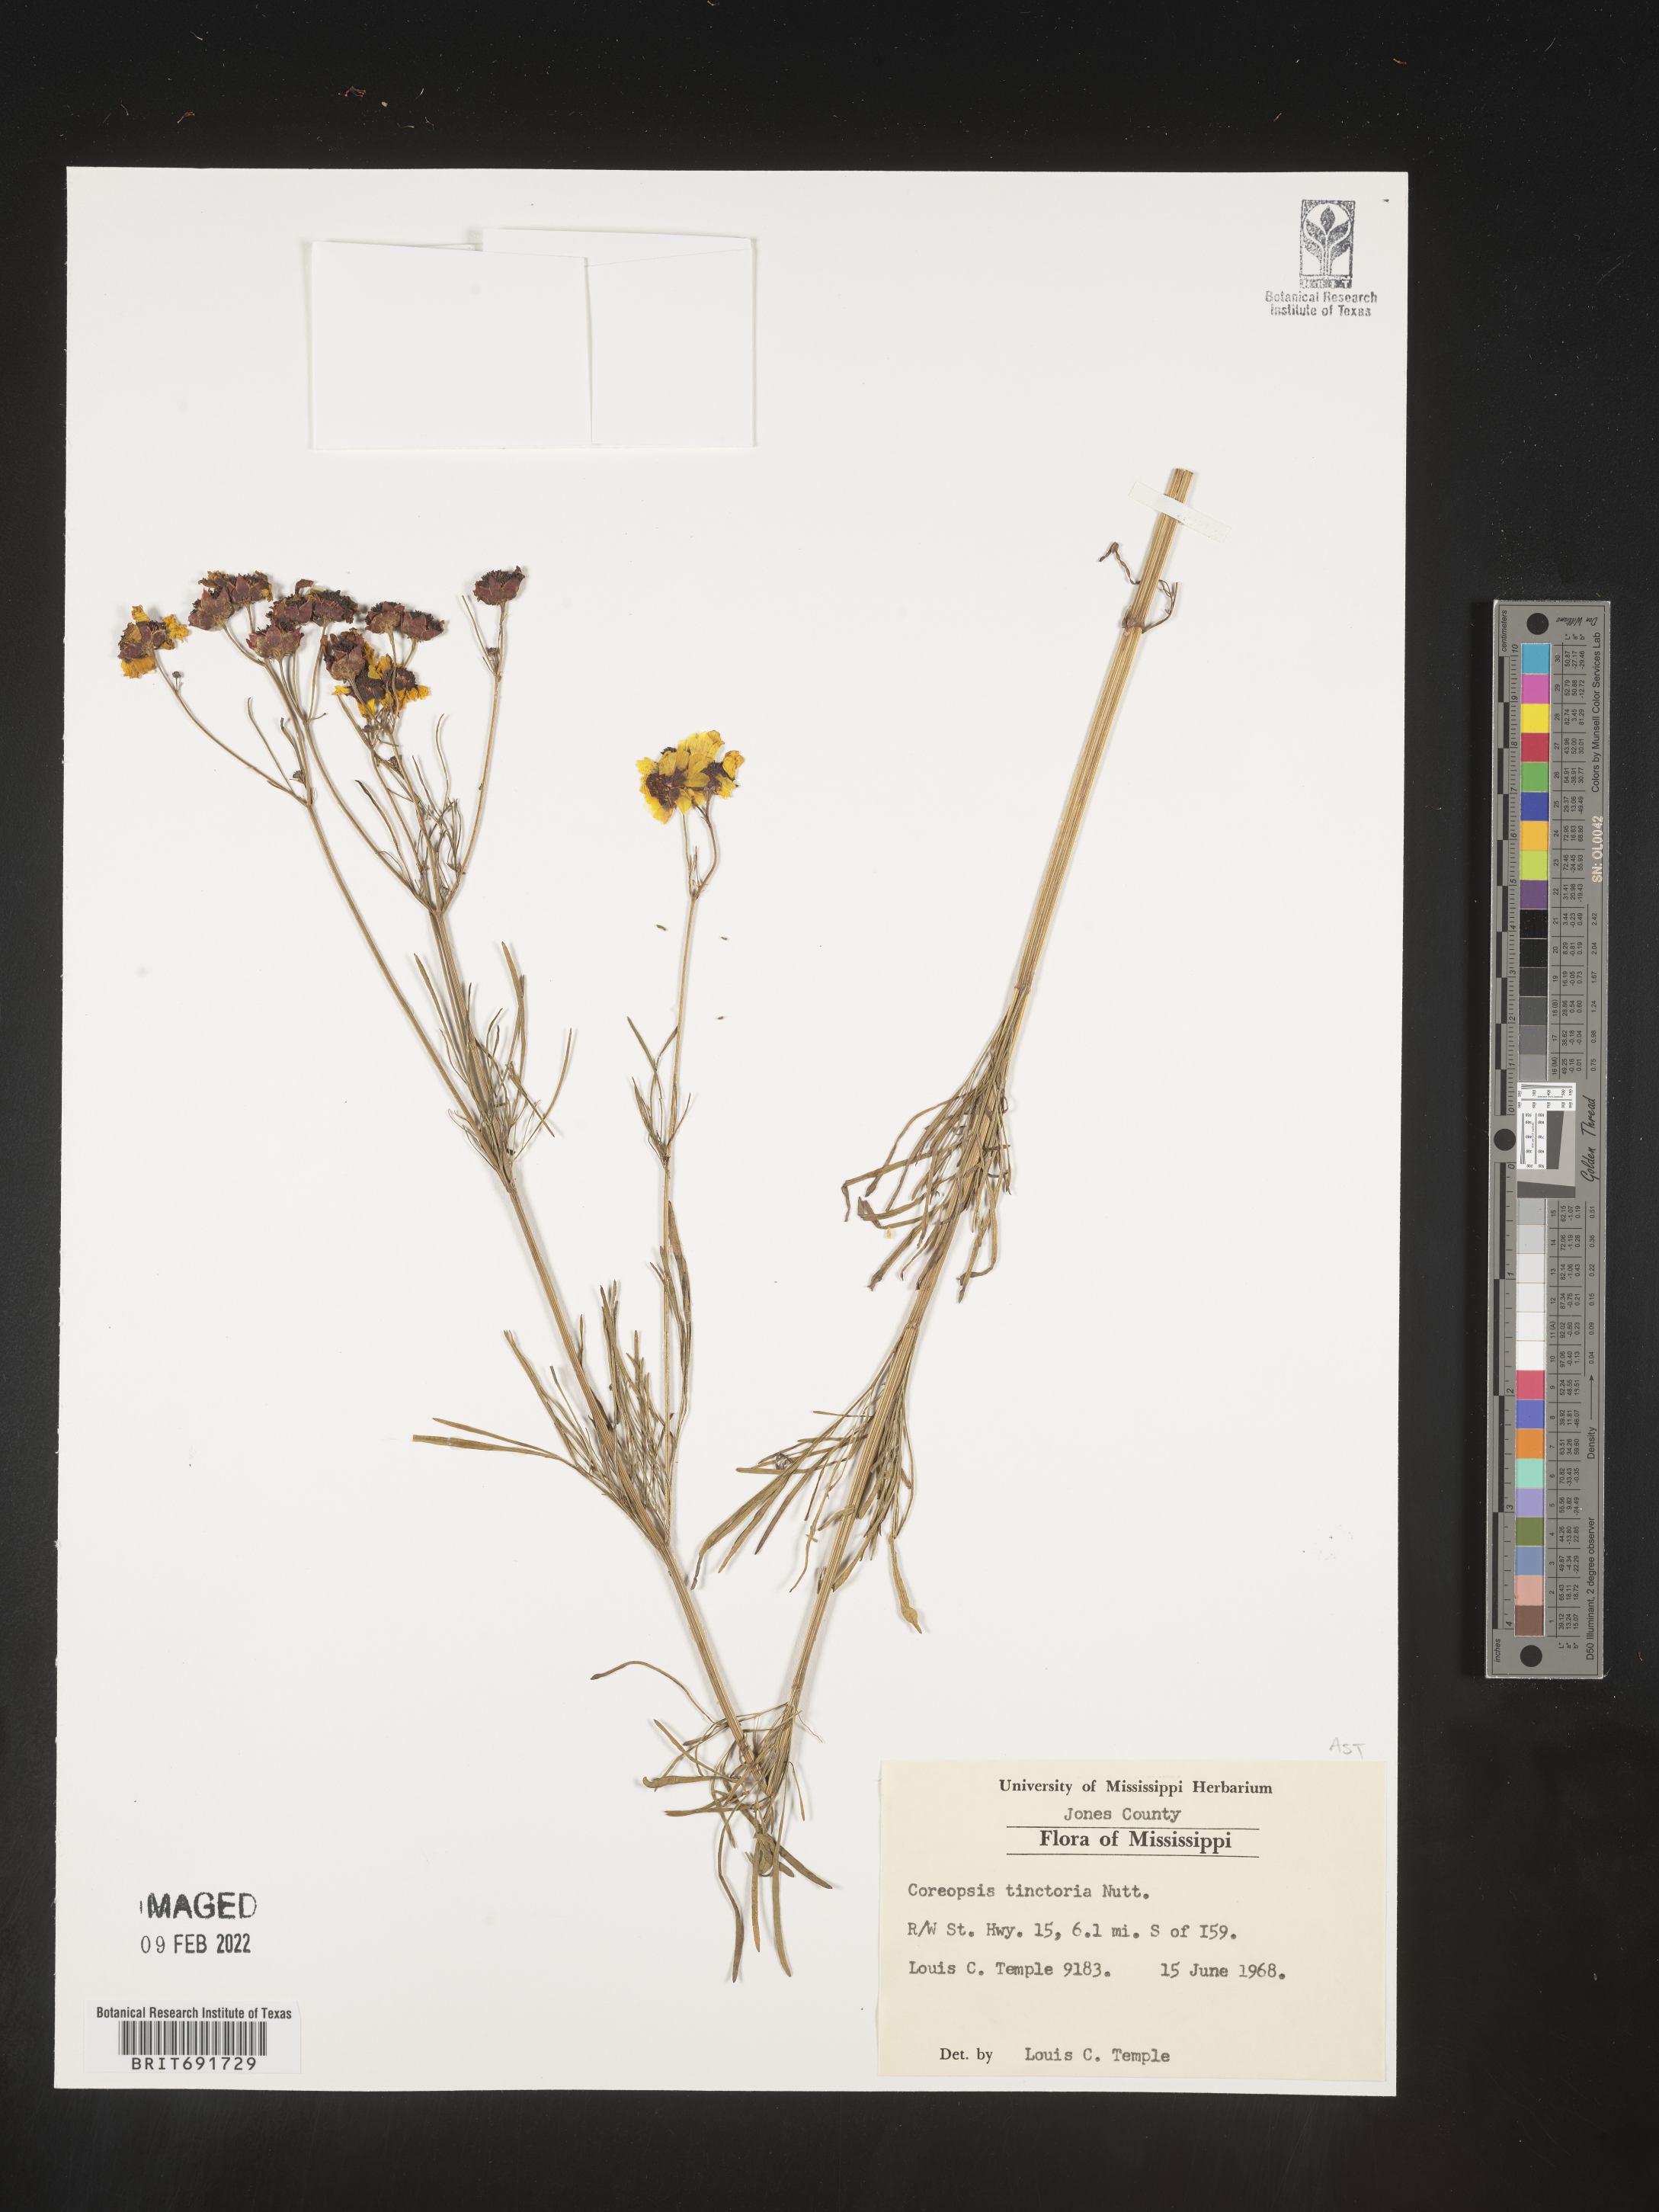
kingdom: Plantae
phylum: Tracheophyta
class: Magnoliopsida
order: Asterales
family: Asteraceae
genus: Coreopsis
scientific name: Coreopsis tinctoria
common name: Garden tickseed
